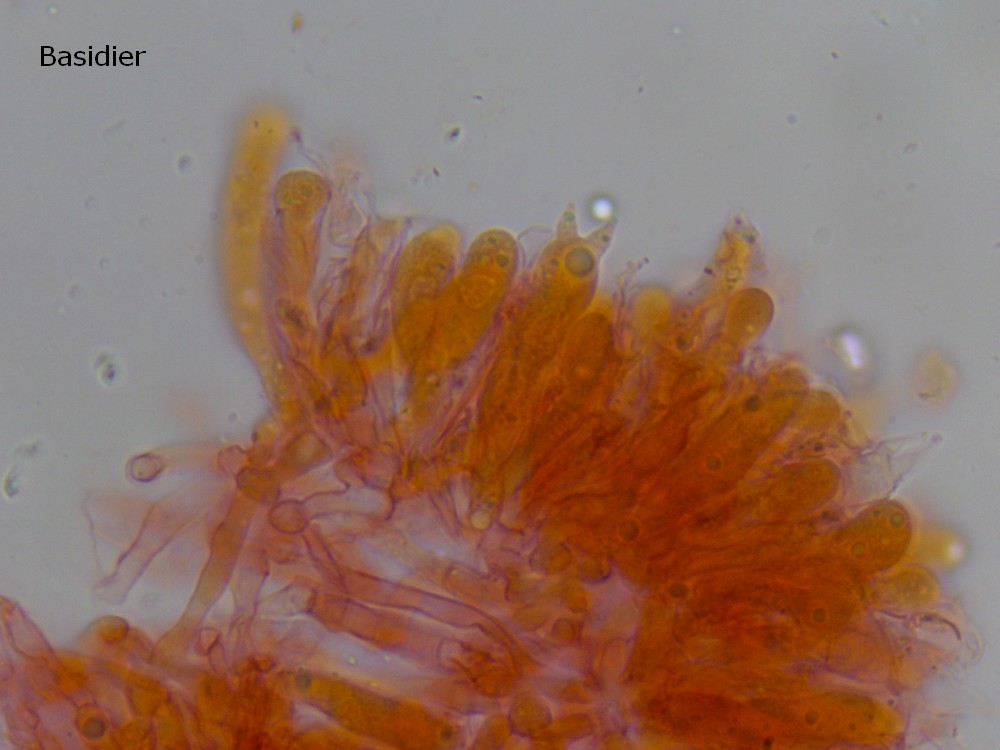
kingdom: Fungi
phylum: Basidiomycota
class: Agaricomycetes
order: Agaricales
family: Mycenaceae
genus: Mycena
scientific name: Mycena pseudopicta
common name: overdrevs-huesvamp
